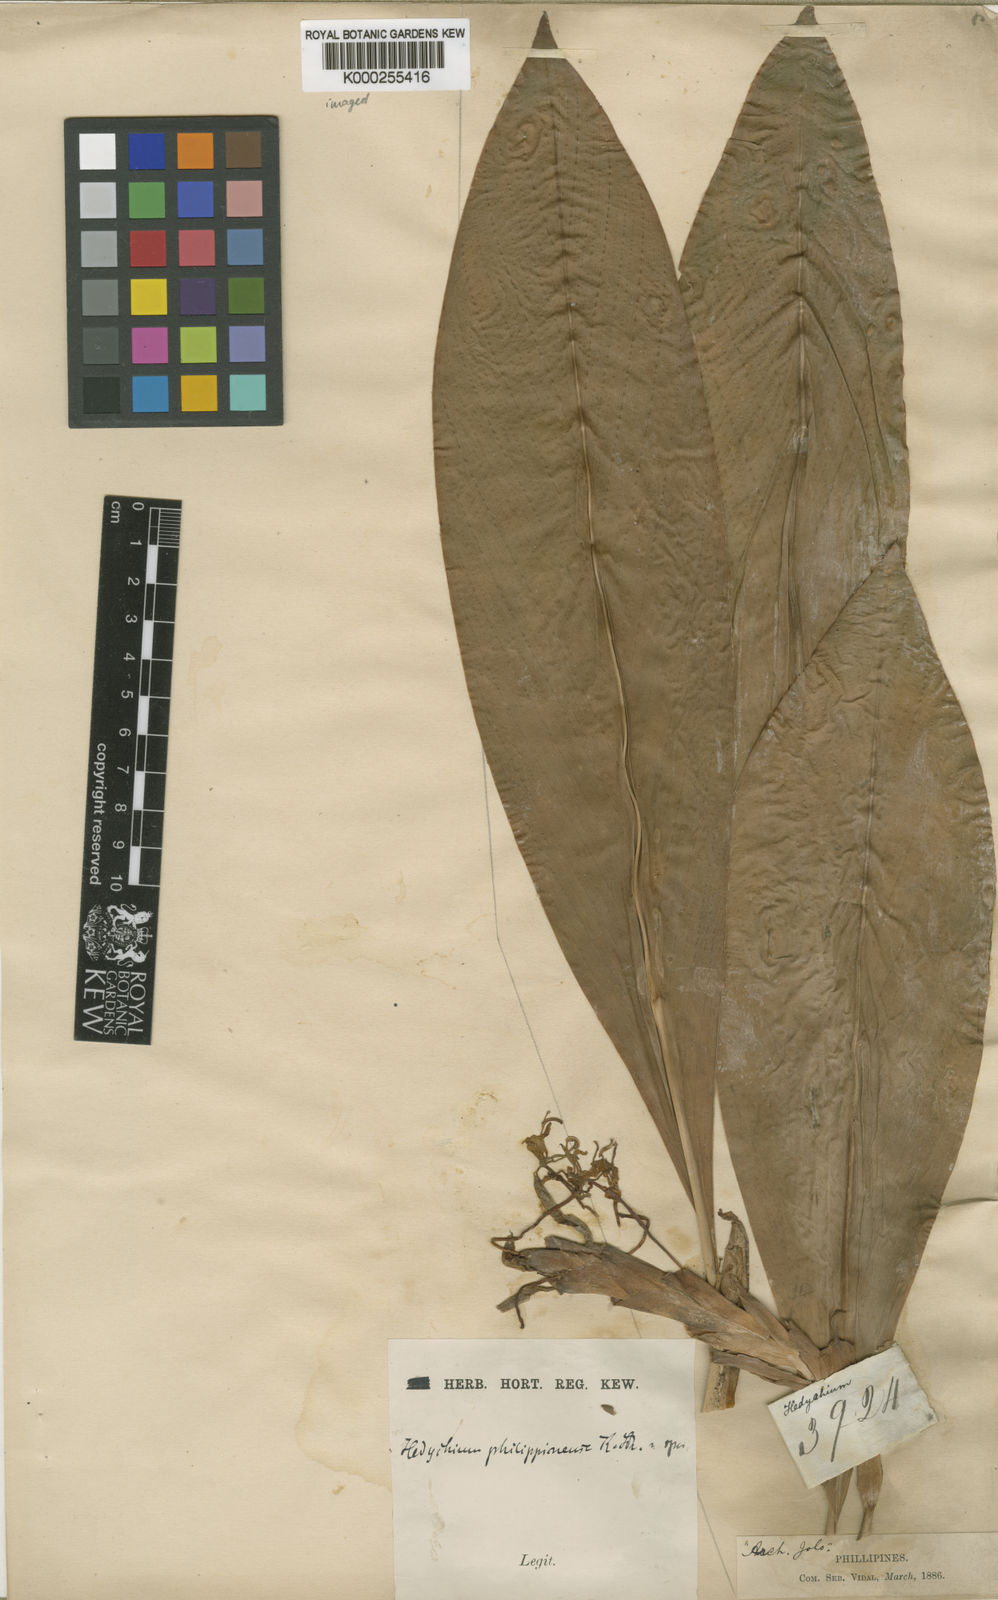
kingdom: Plantae
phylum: Tracheophyta
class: Liliopsida
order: Zingiberales
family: Zingiberaceae
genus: Hedychium
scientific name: Hedychium philippinense
